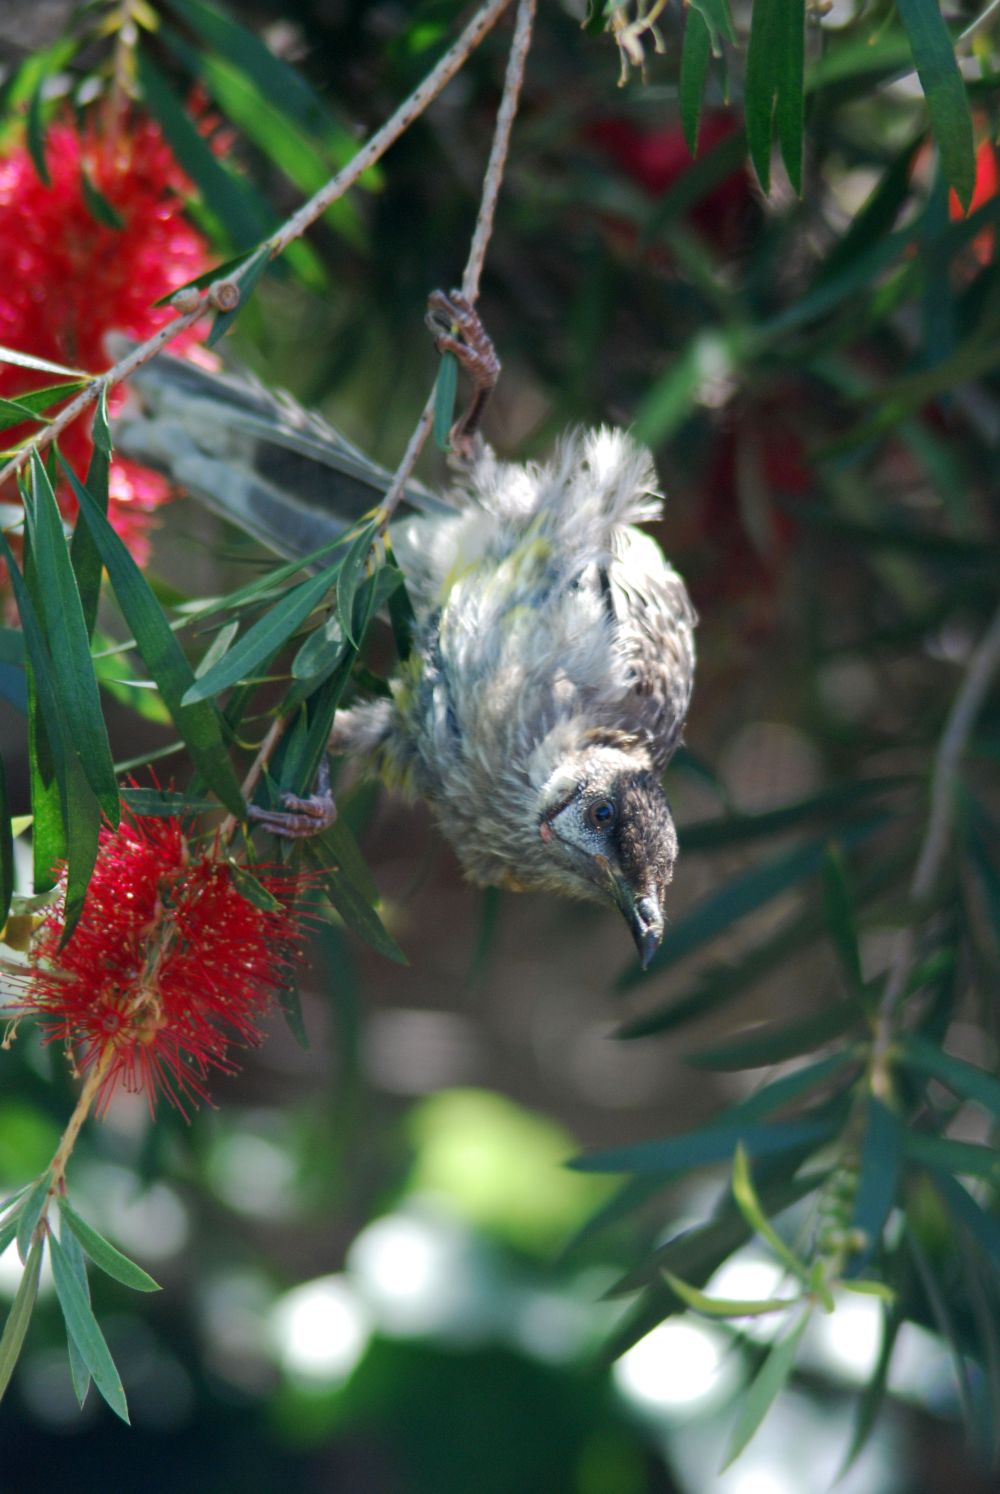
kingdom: Animalia
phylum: Chordata
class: Aves
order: Passeriformes
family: Meliphagidae
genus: Anthochaera
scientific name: Anthochaera carunculata
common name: Red wattlebird
